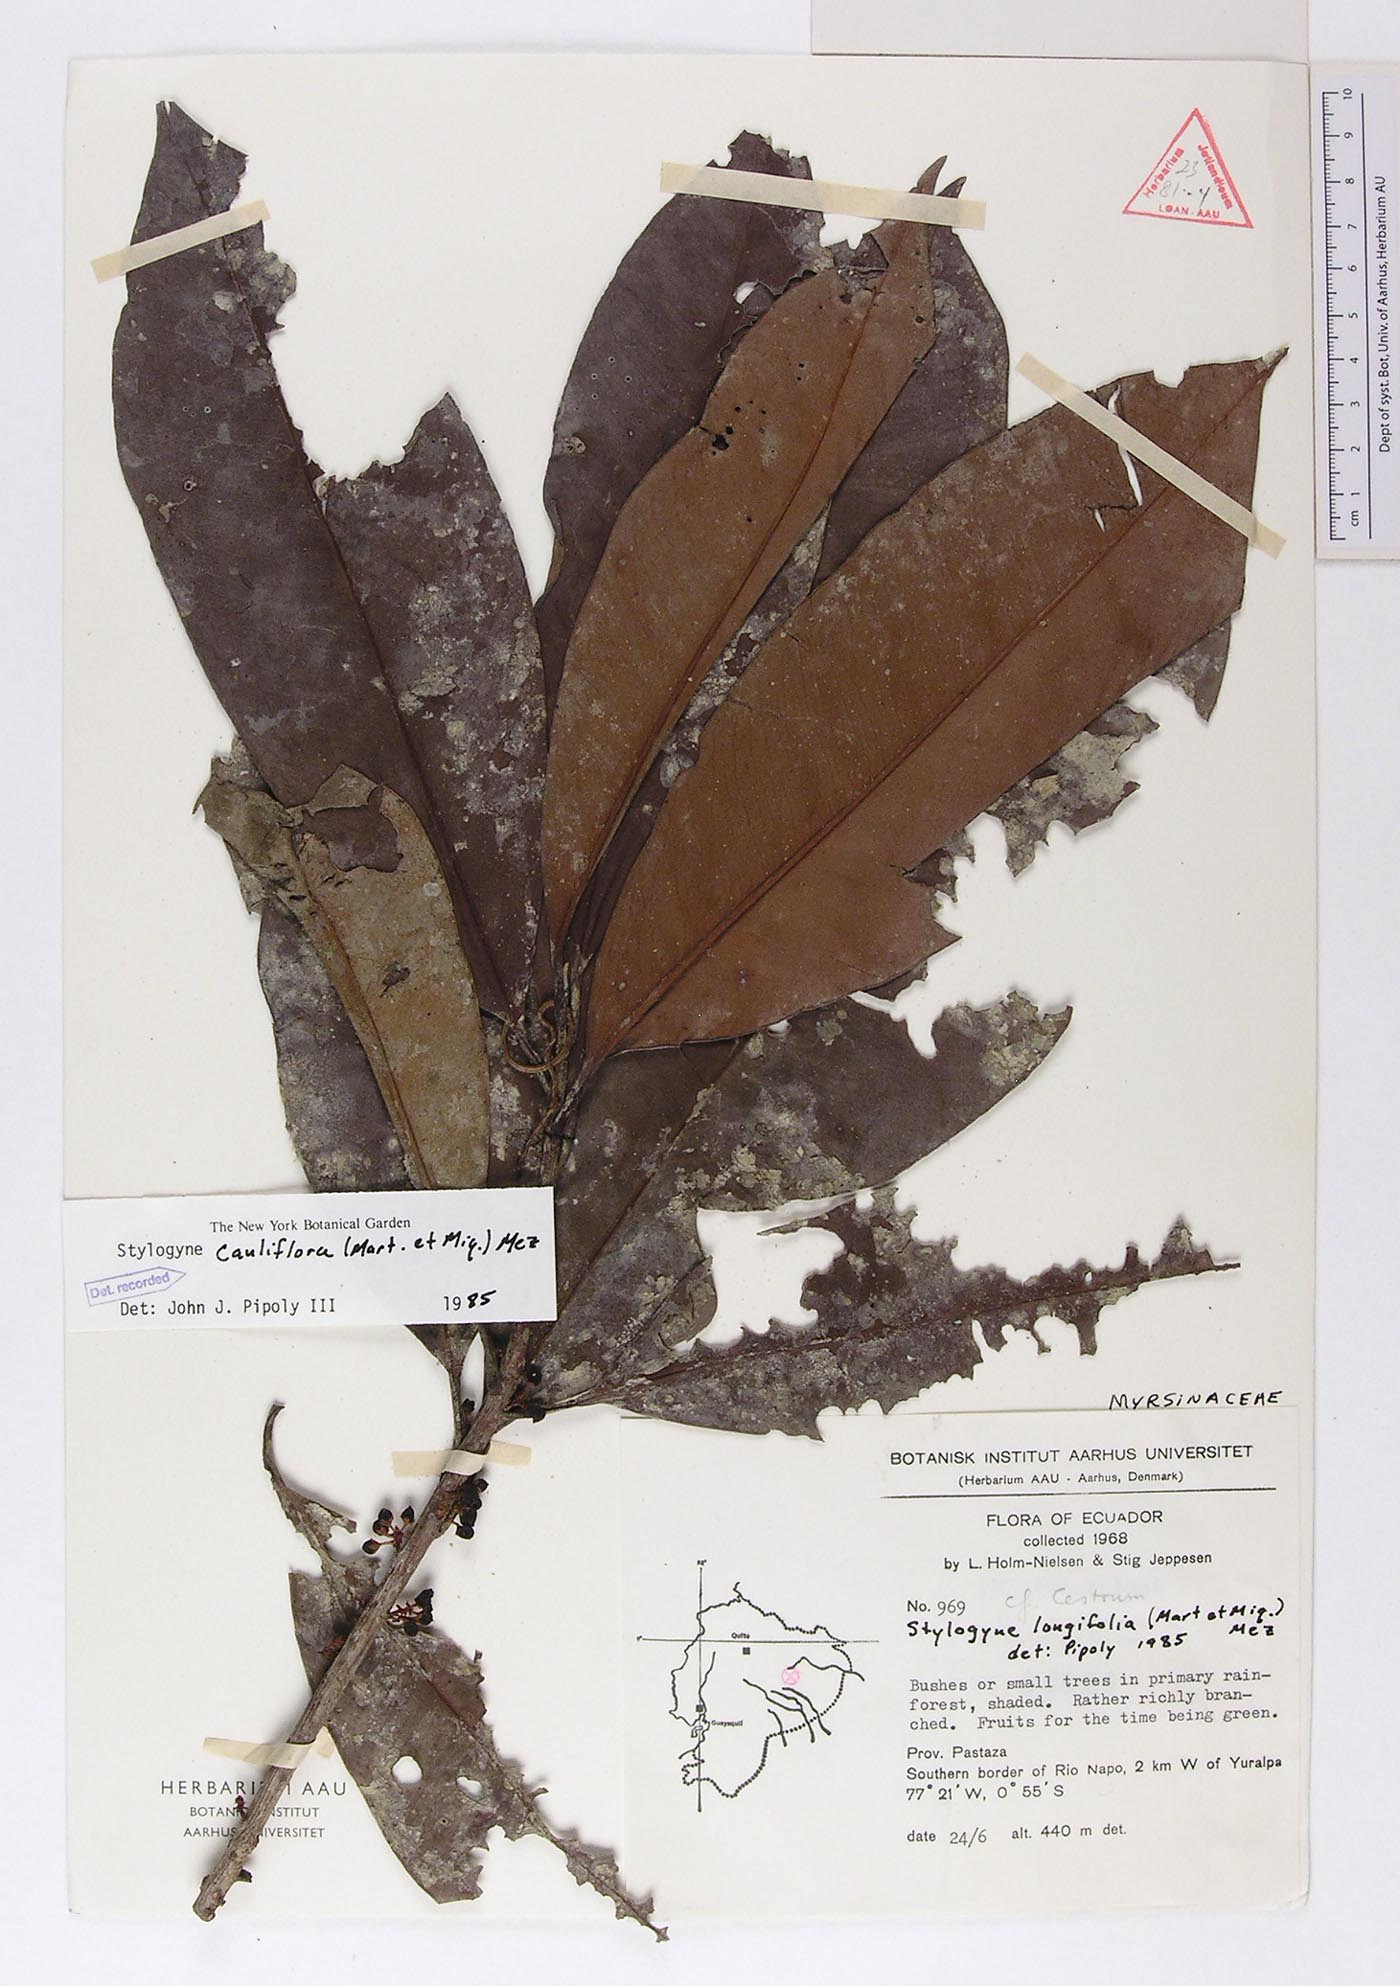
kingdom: Plantae
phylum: Tracheophyta
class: Magnoliopsida
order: Ericales
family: Primulaceae
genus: Stylogyne
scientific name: Stylogyne cauliflora
